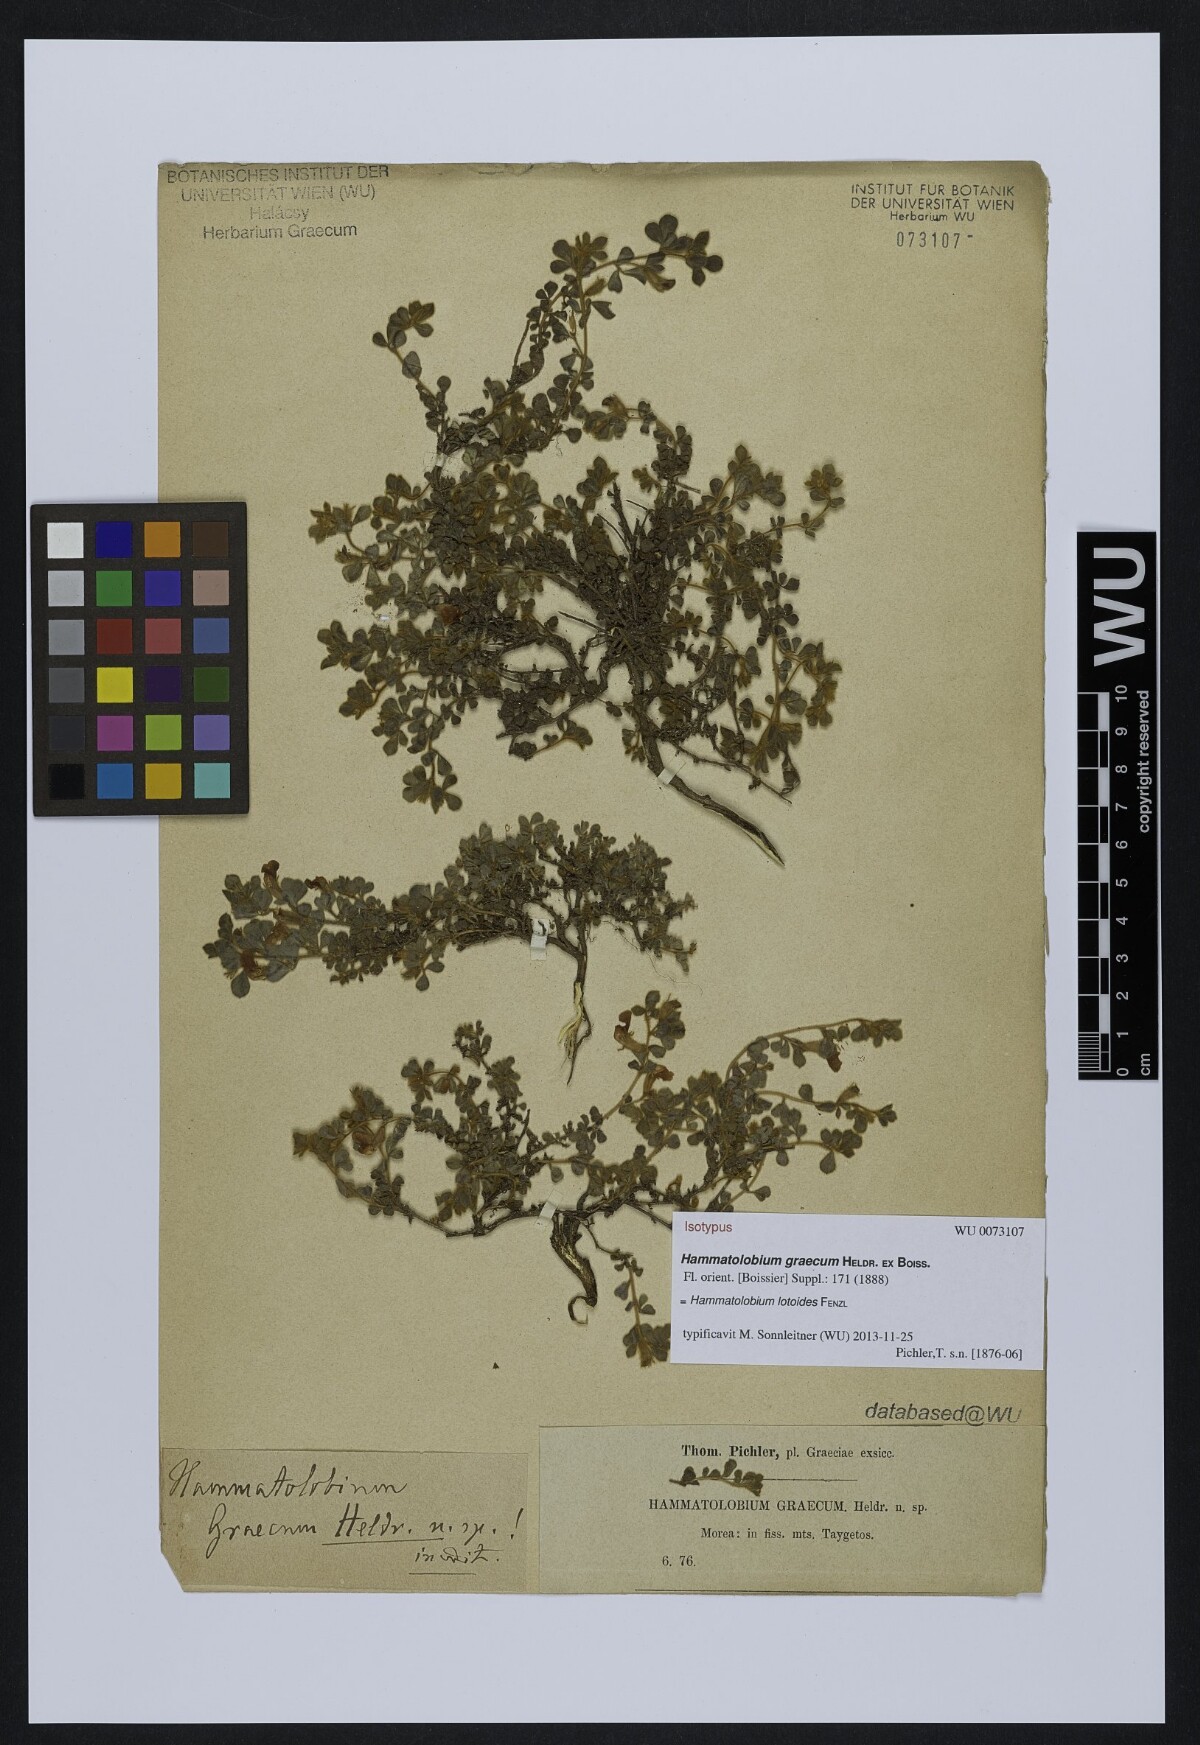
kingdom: Plantae
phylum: Tracheophyta
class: Magnoliopsida
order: Fabales
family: Fabaceae
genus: Hammatolobium
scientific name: Hammatolobium lotoides
